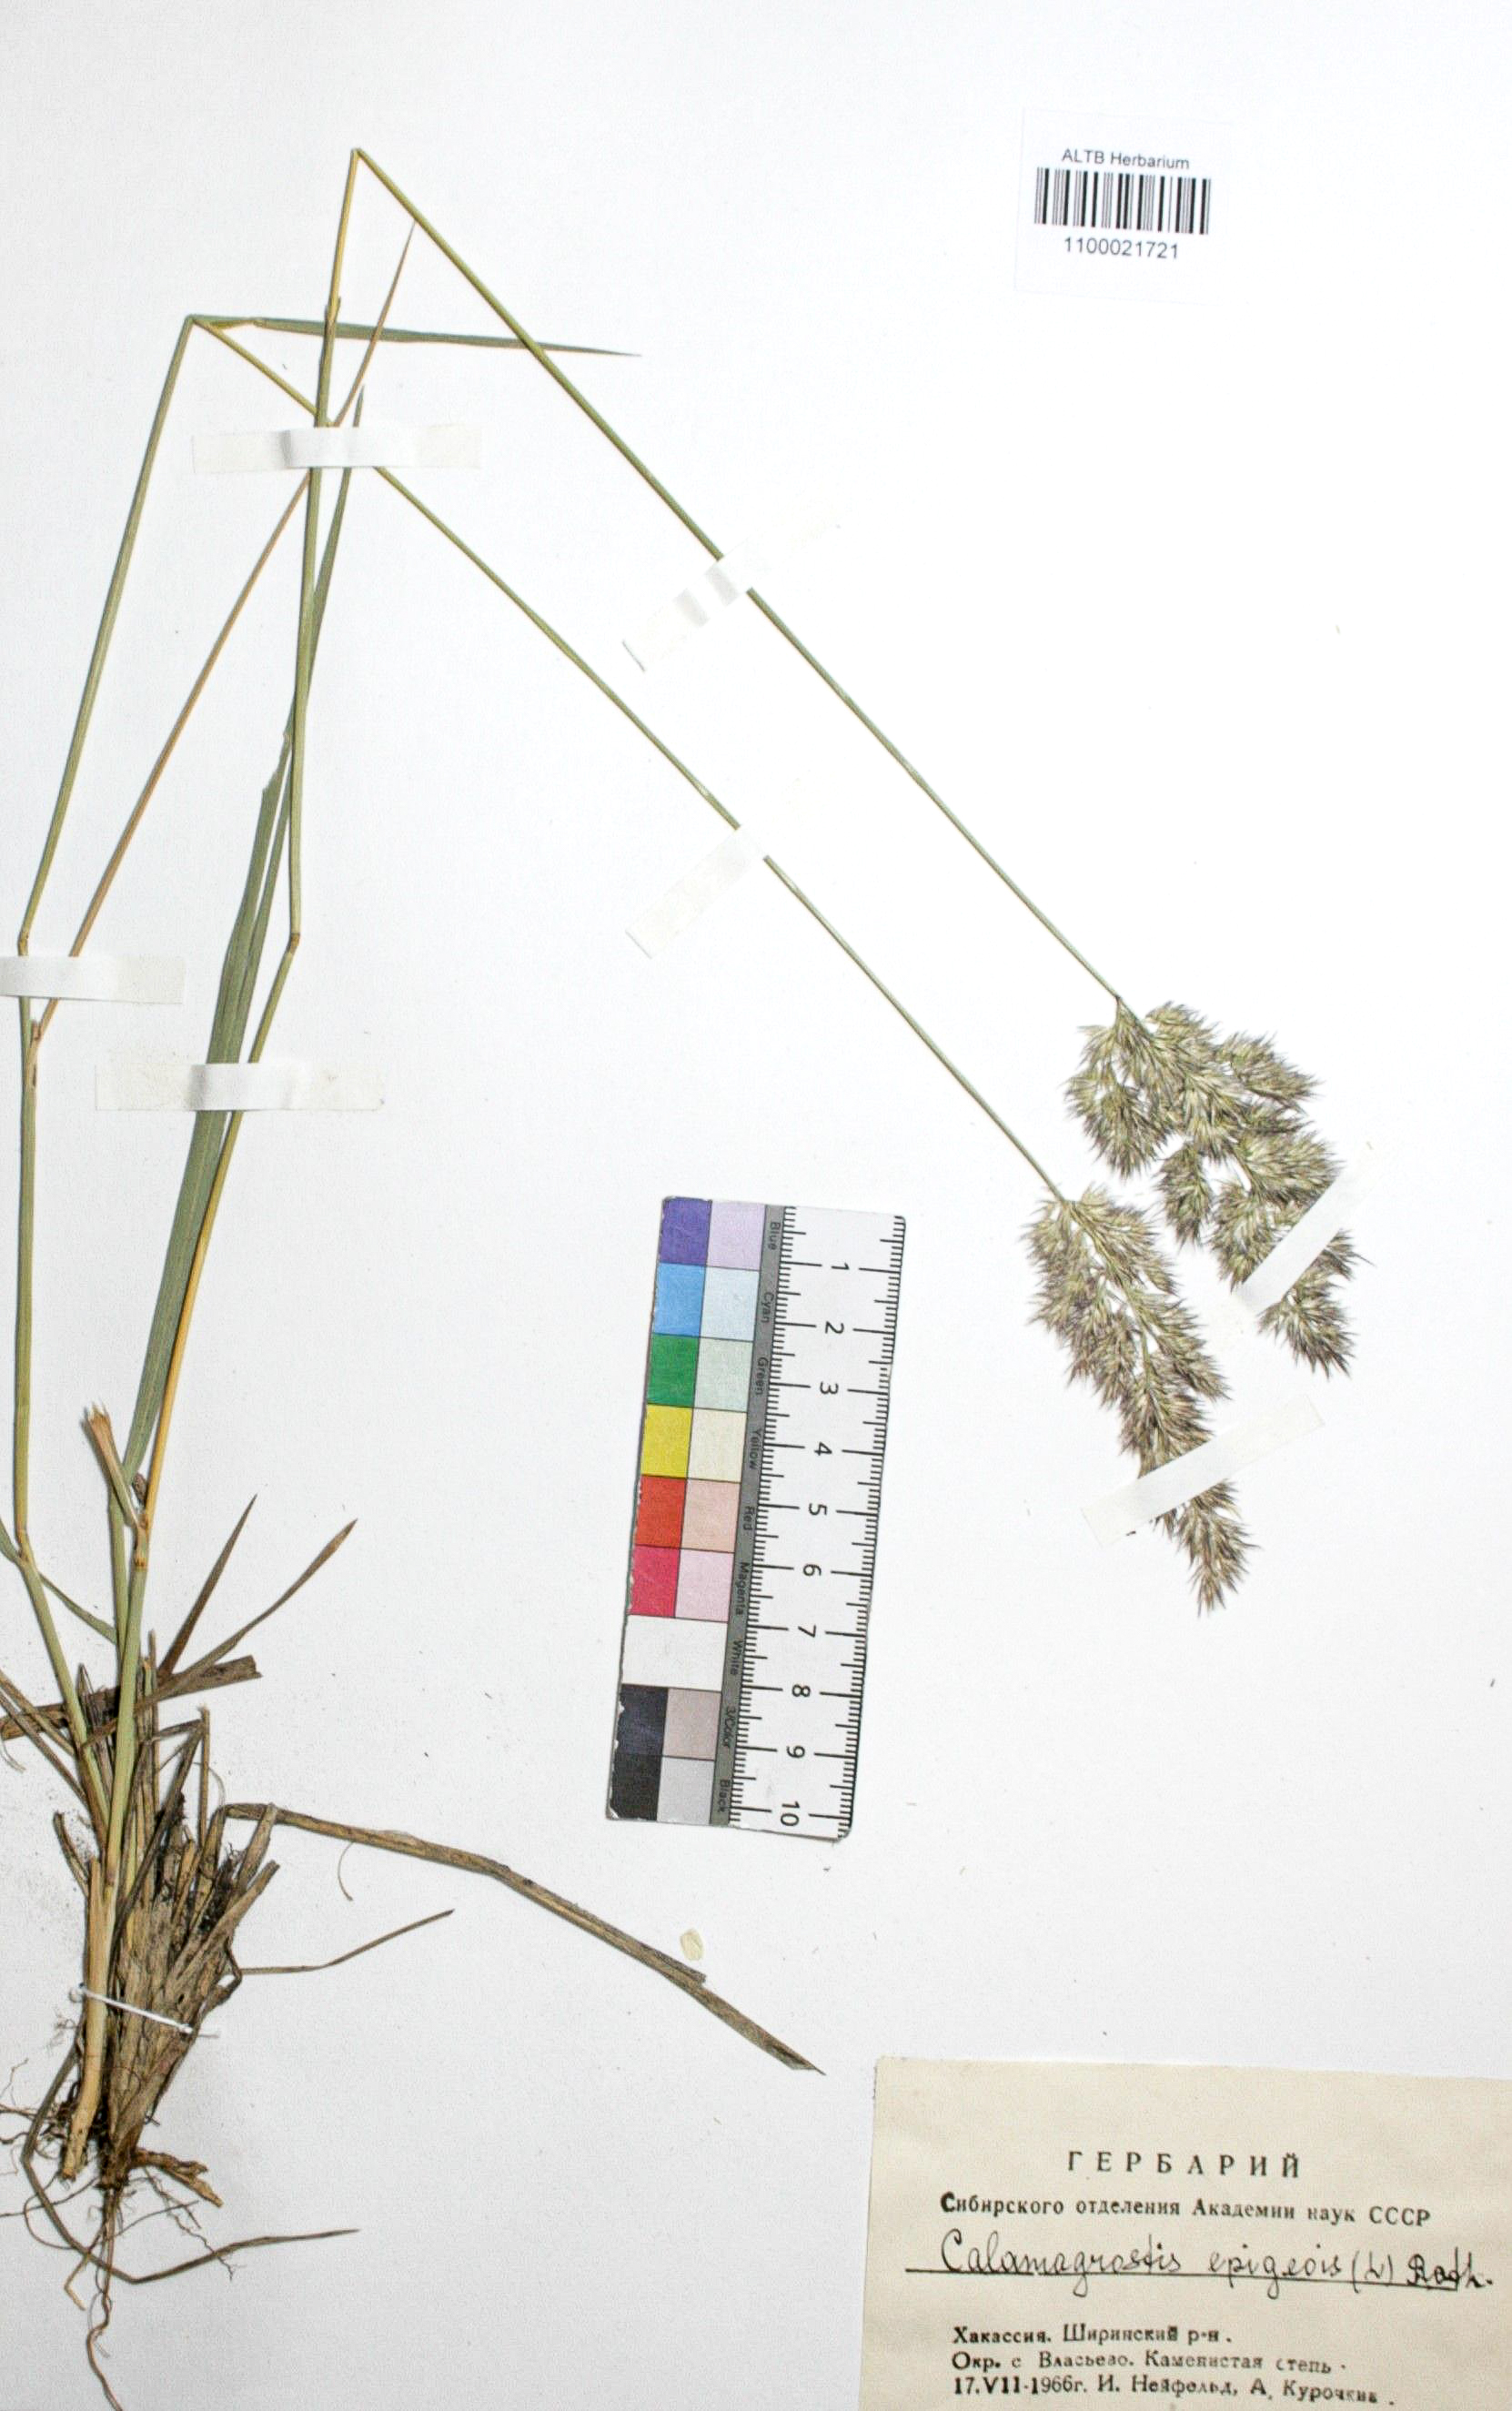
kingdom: Plantae
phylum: Tracheophyta
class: Liliopsida
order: Poales
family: Poaceae
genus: Calamagrostis
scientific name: Calamagrostis epigejos
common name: Wood small-reed
